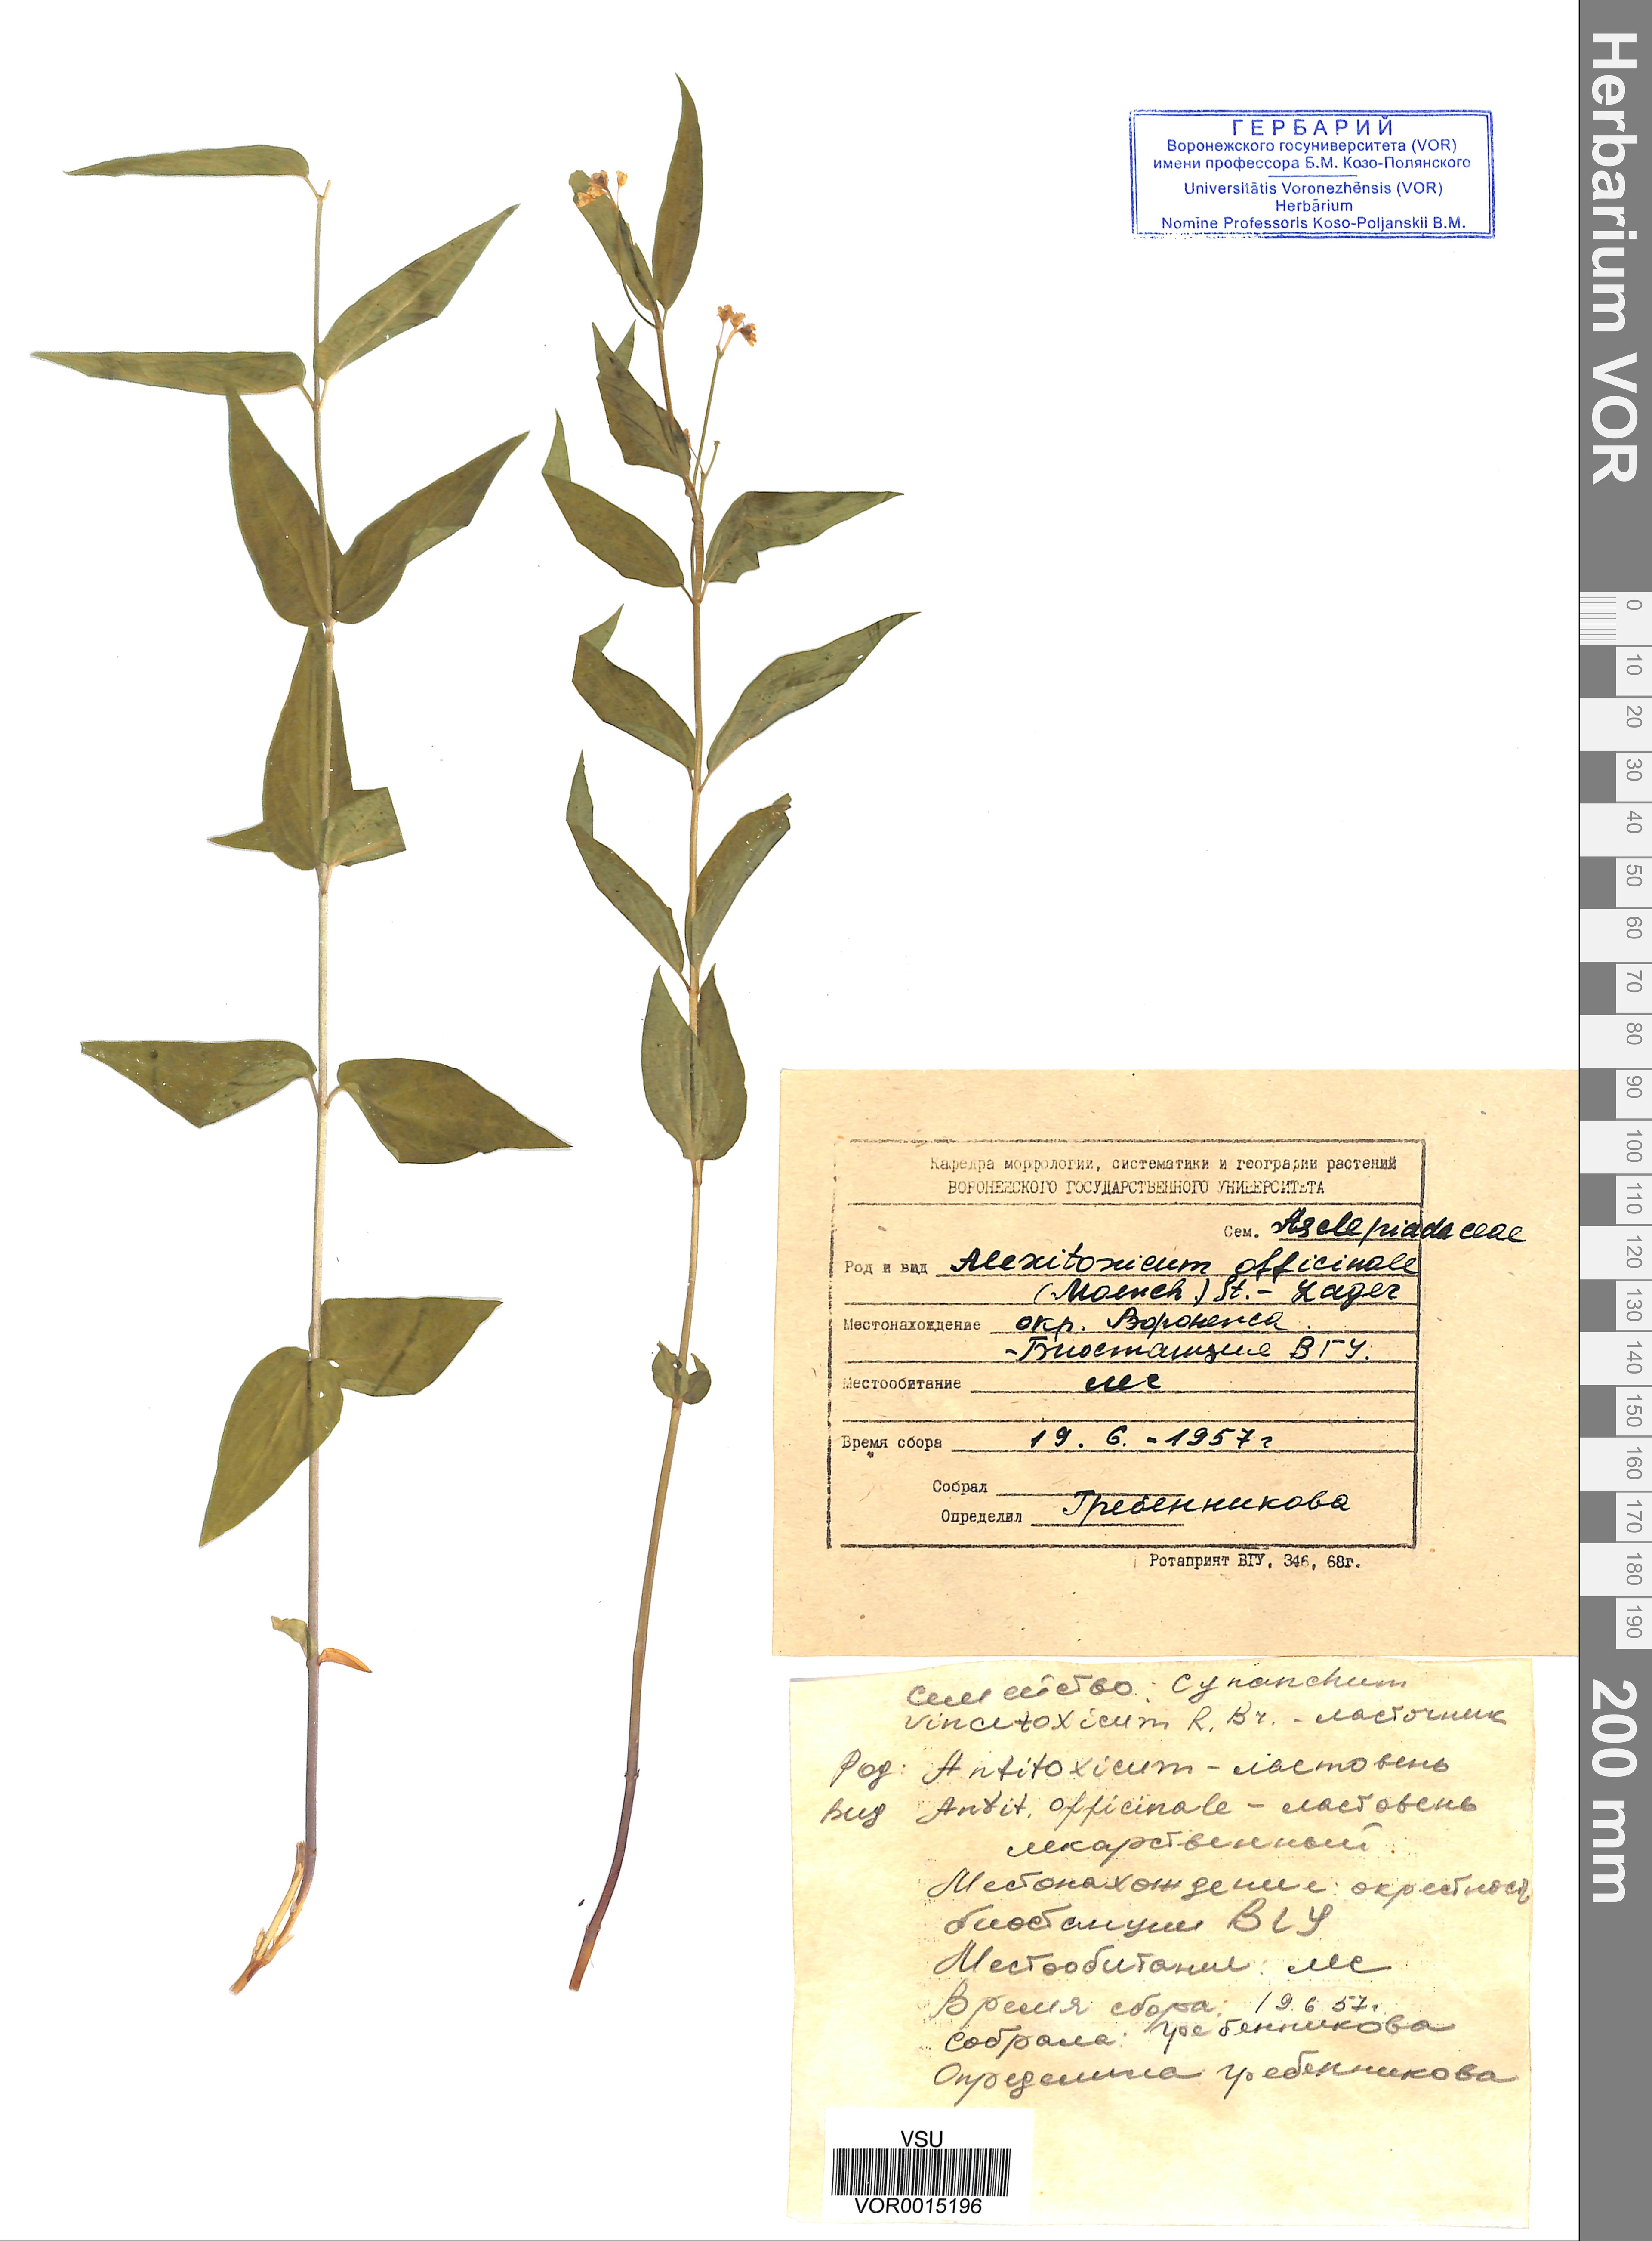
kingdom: Plantae
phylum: Tracheophyta
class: Magnoliopsida
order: Gentianales
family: Apocynaceae
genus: Vincetoxicum
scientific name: Vincetoxicum hirundinaria
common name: White swallowwort
